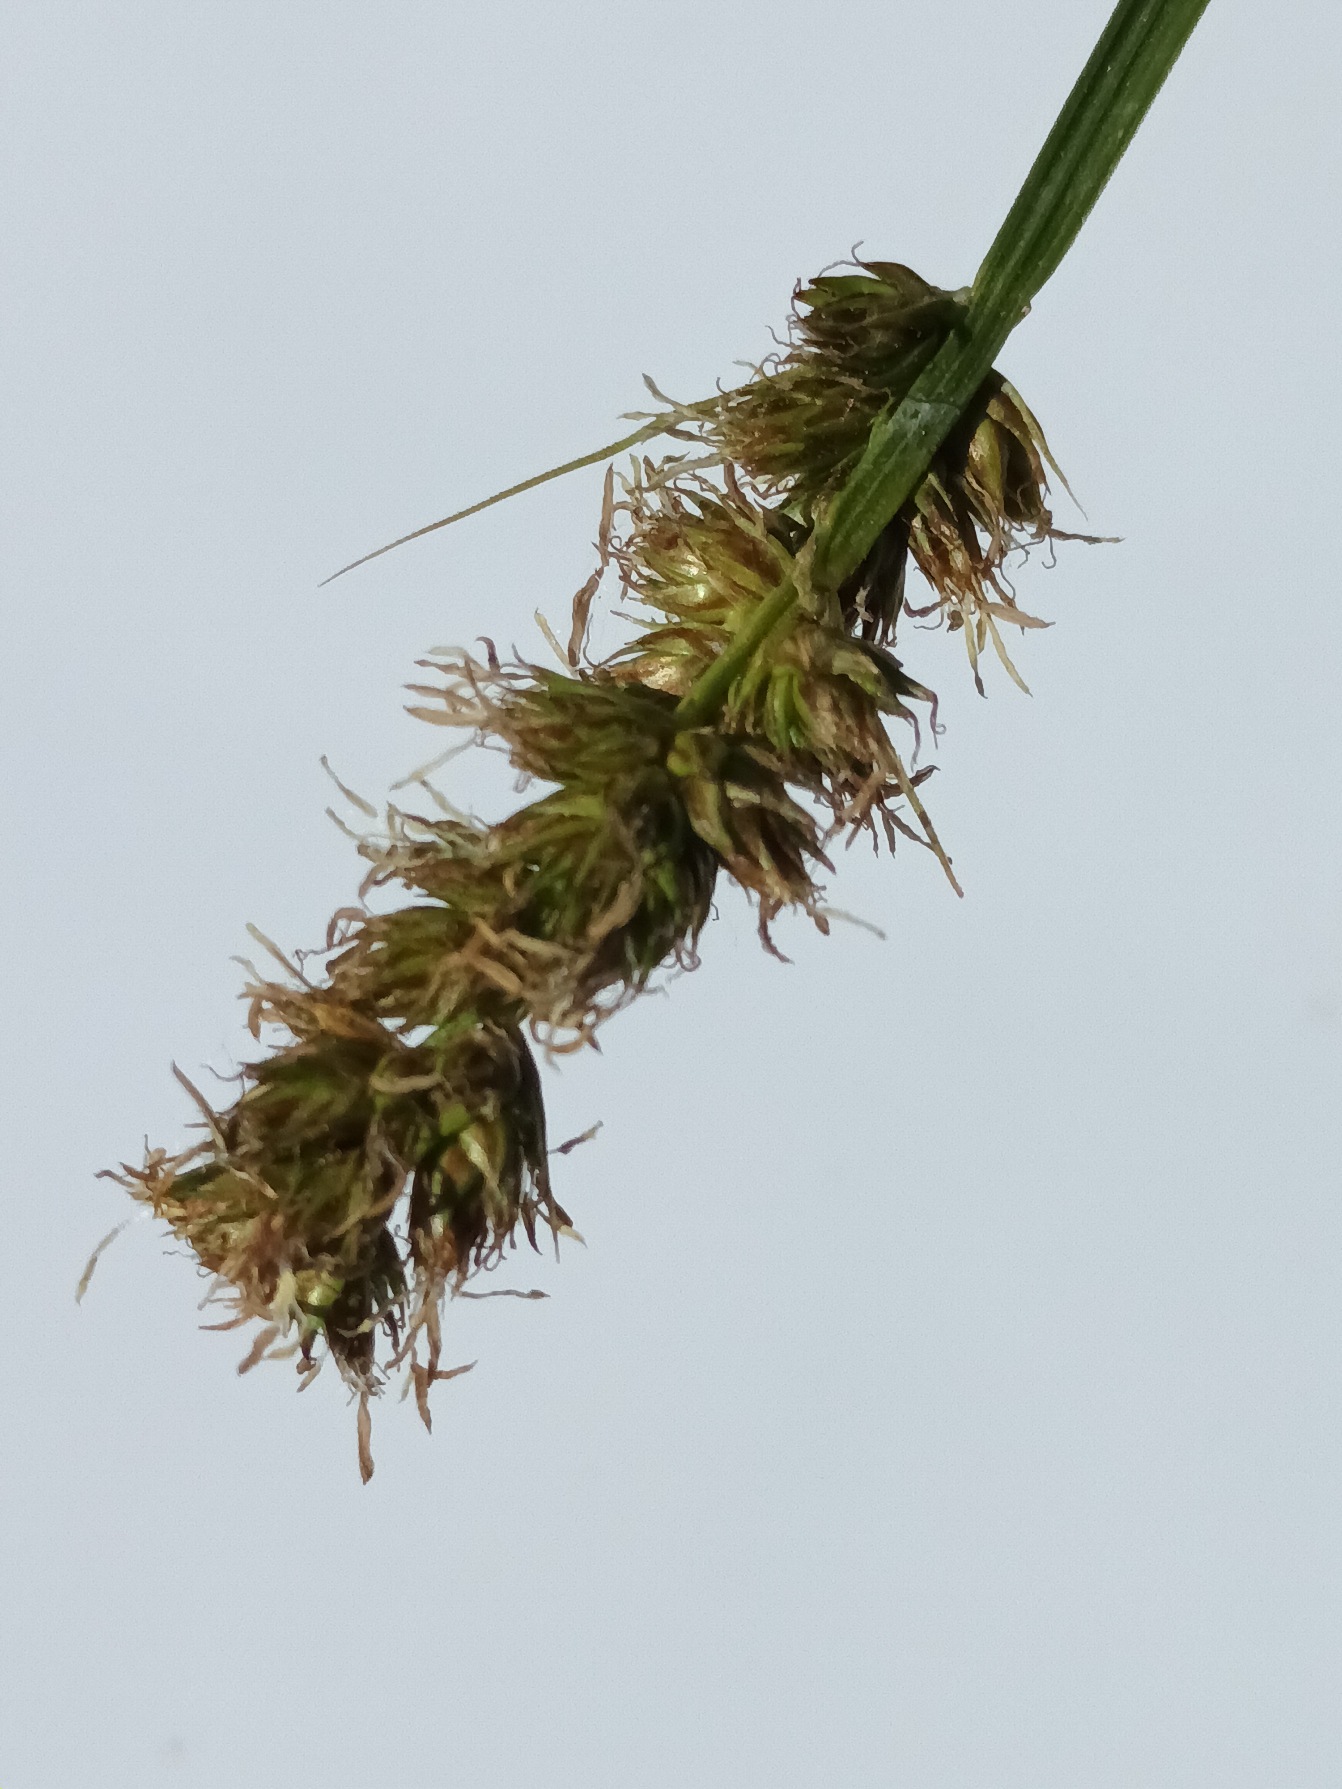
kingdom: Plantae
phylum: Tracheophyta
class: Liliopsida
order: Poales
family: Cyperaceae
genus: Carex
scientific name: Carex otrubae
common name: Sylt-star
